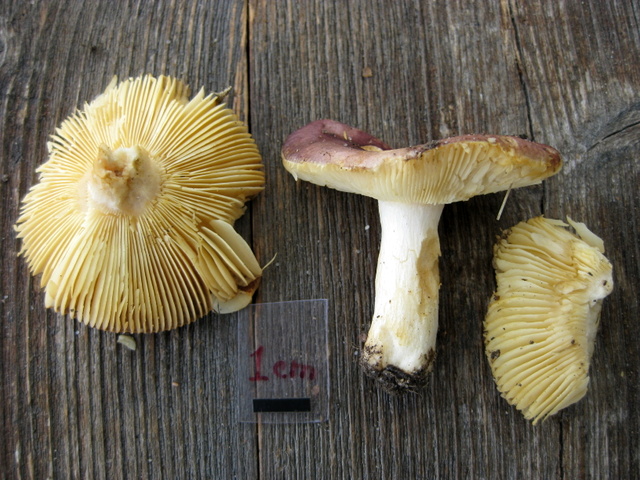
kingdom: Fungi
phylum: Basidiomycota
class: Agaricomycetes
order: Russulales
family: Russulaceae
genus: Russula
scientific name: Russula nitida
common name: året skørhat
